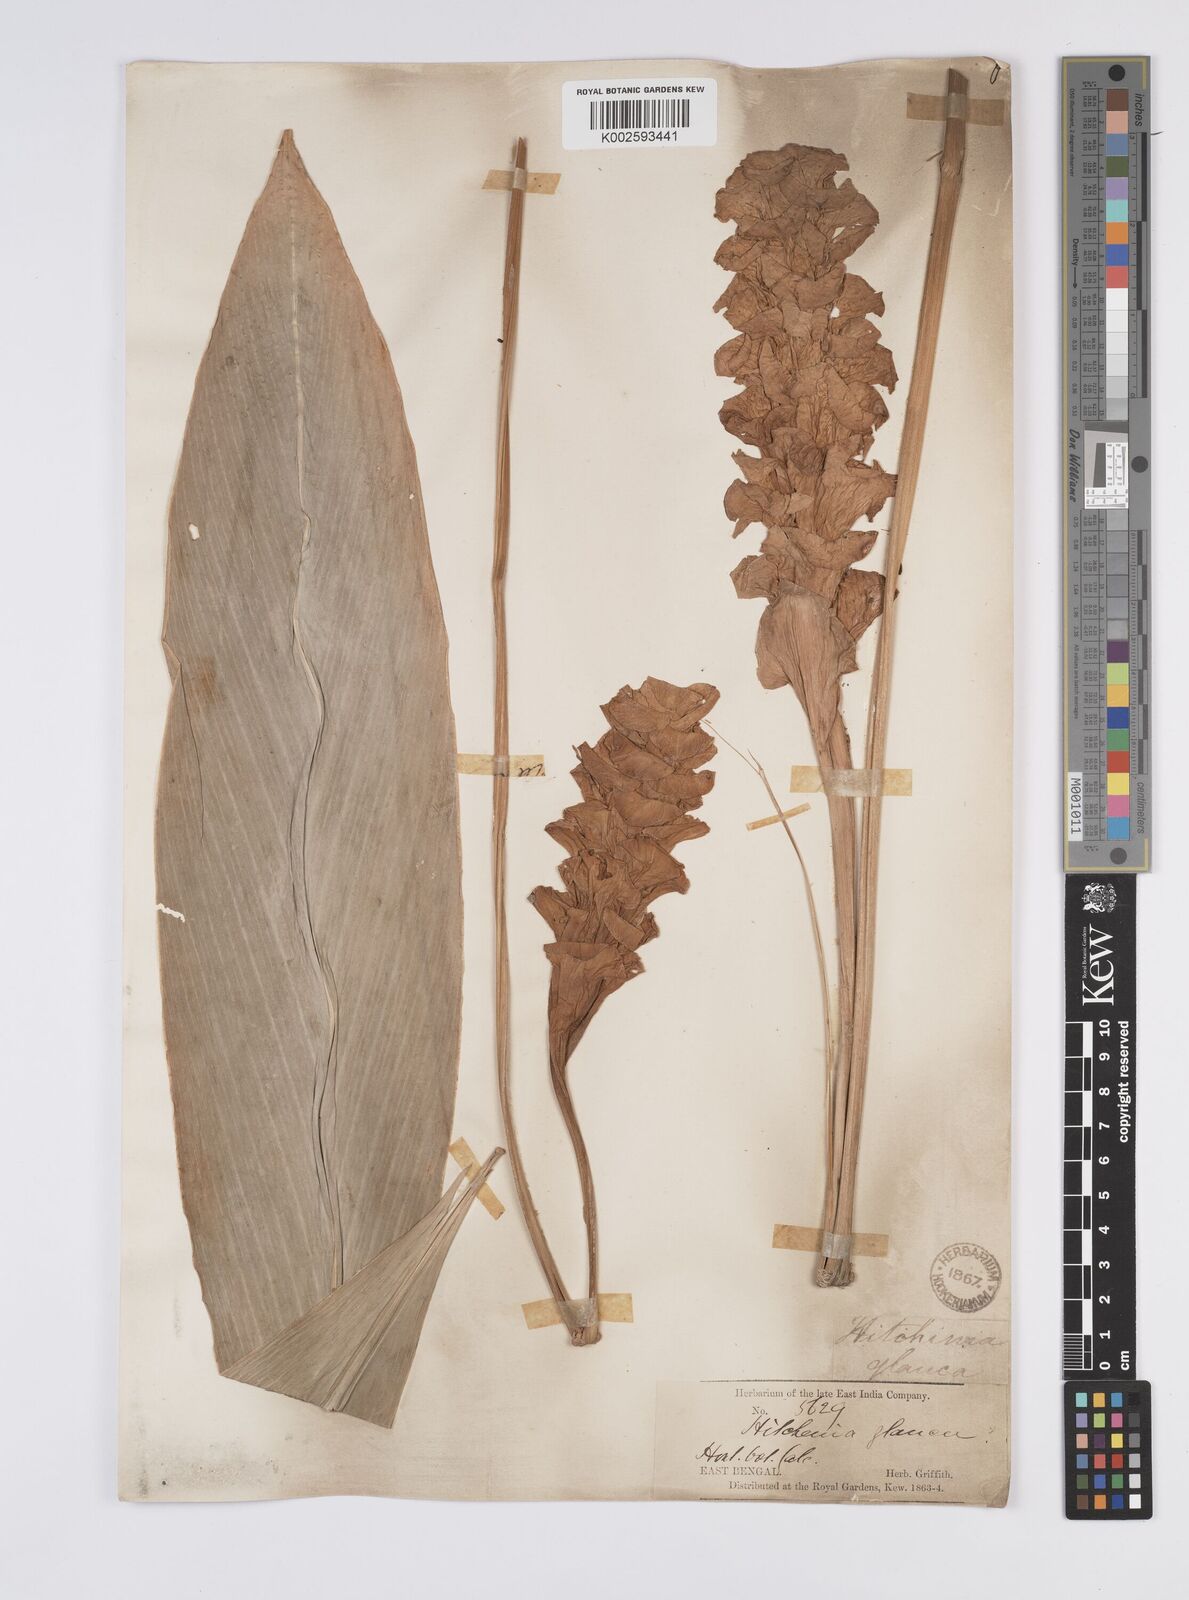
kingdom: Plantae
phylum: Tracheophyta
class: Liliopsida
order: Zingiberales
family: Zingiberaceae
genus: Curcuma
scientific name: Curcuma glauca
